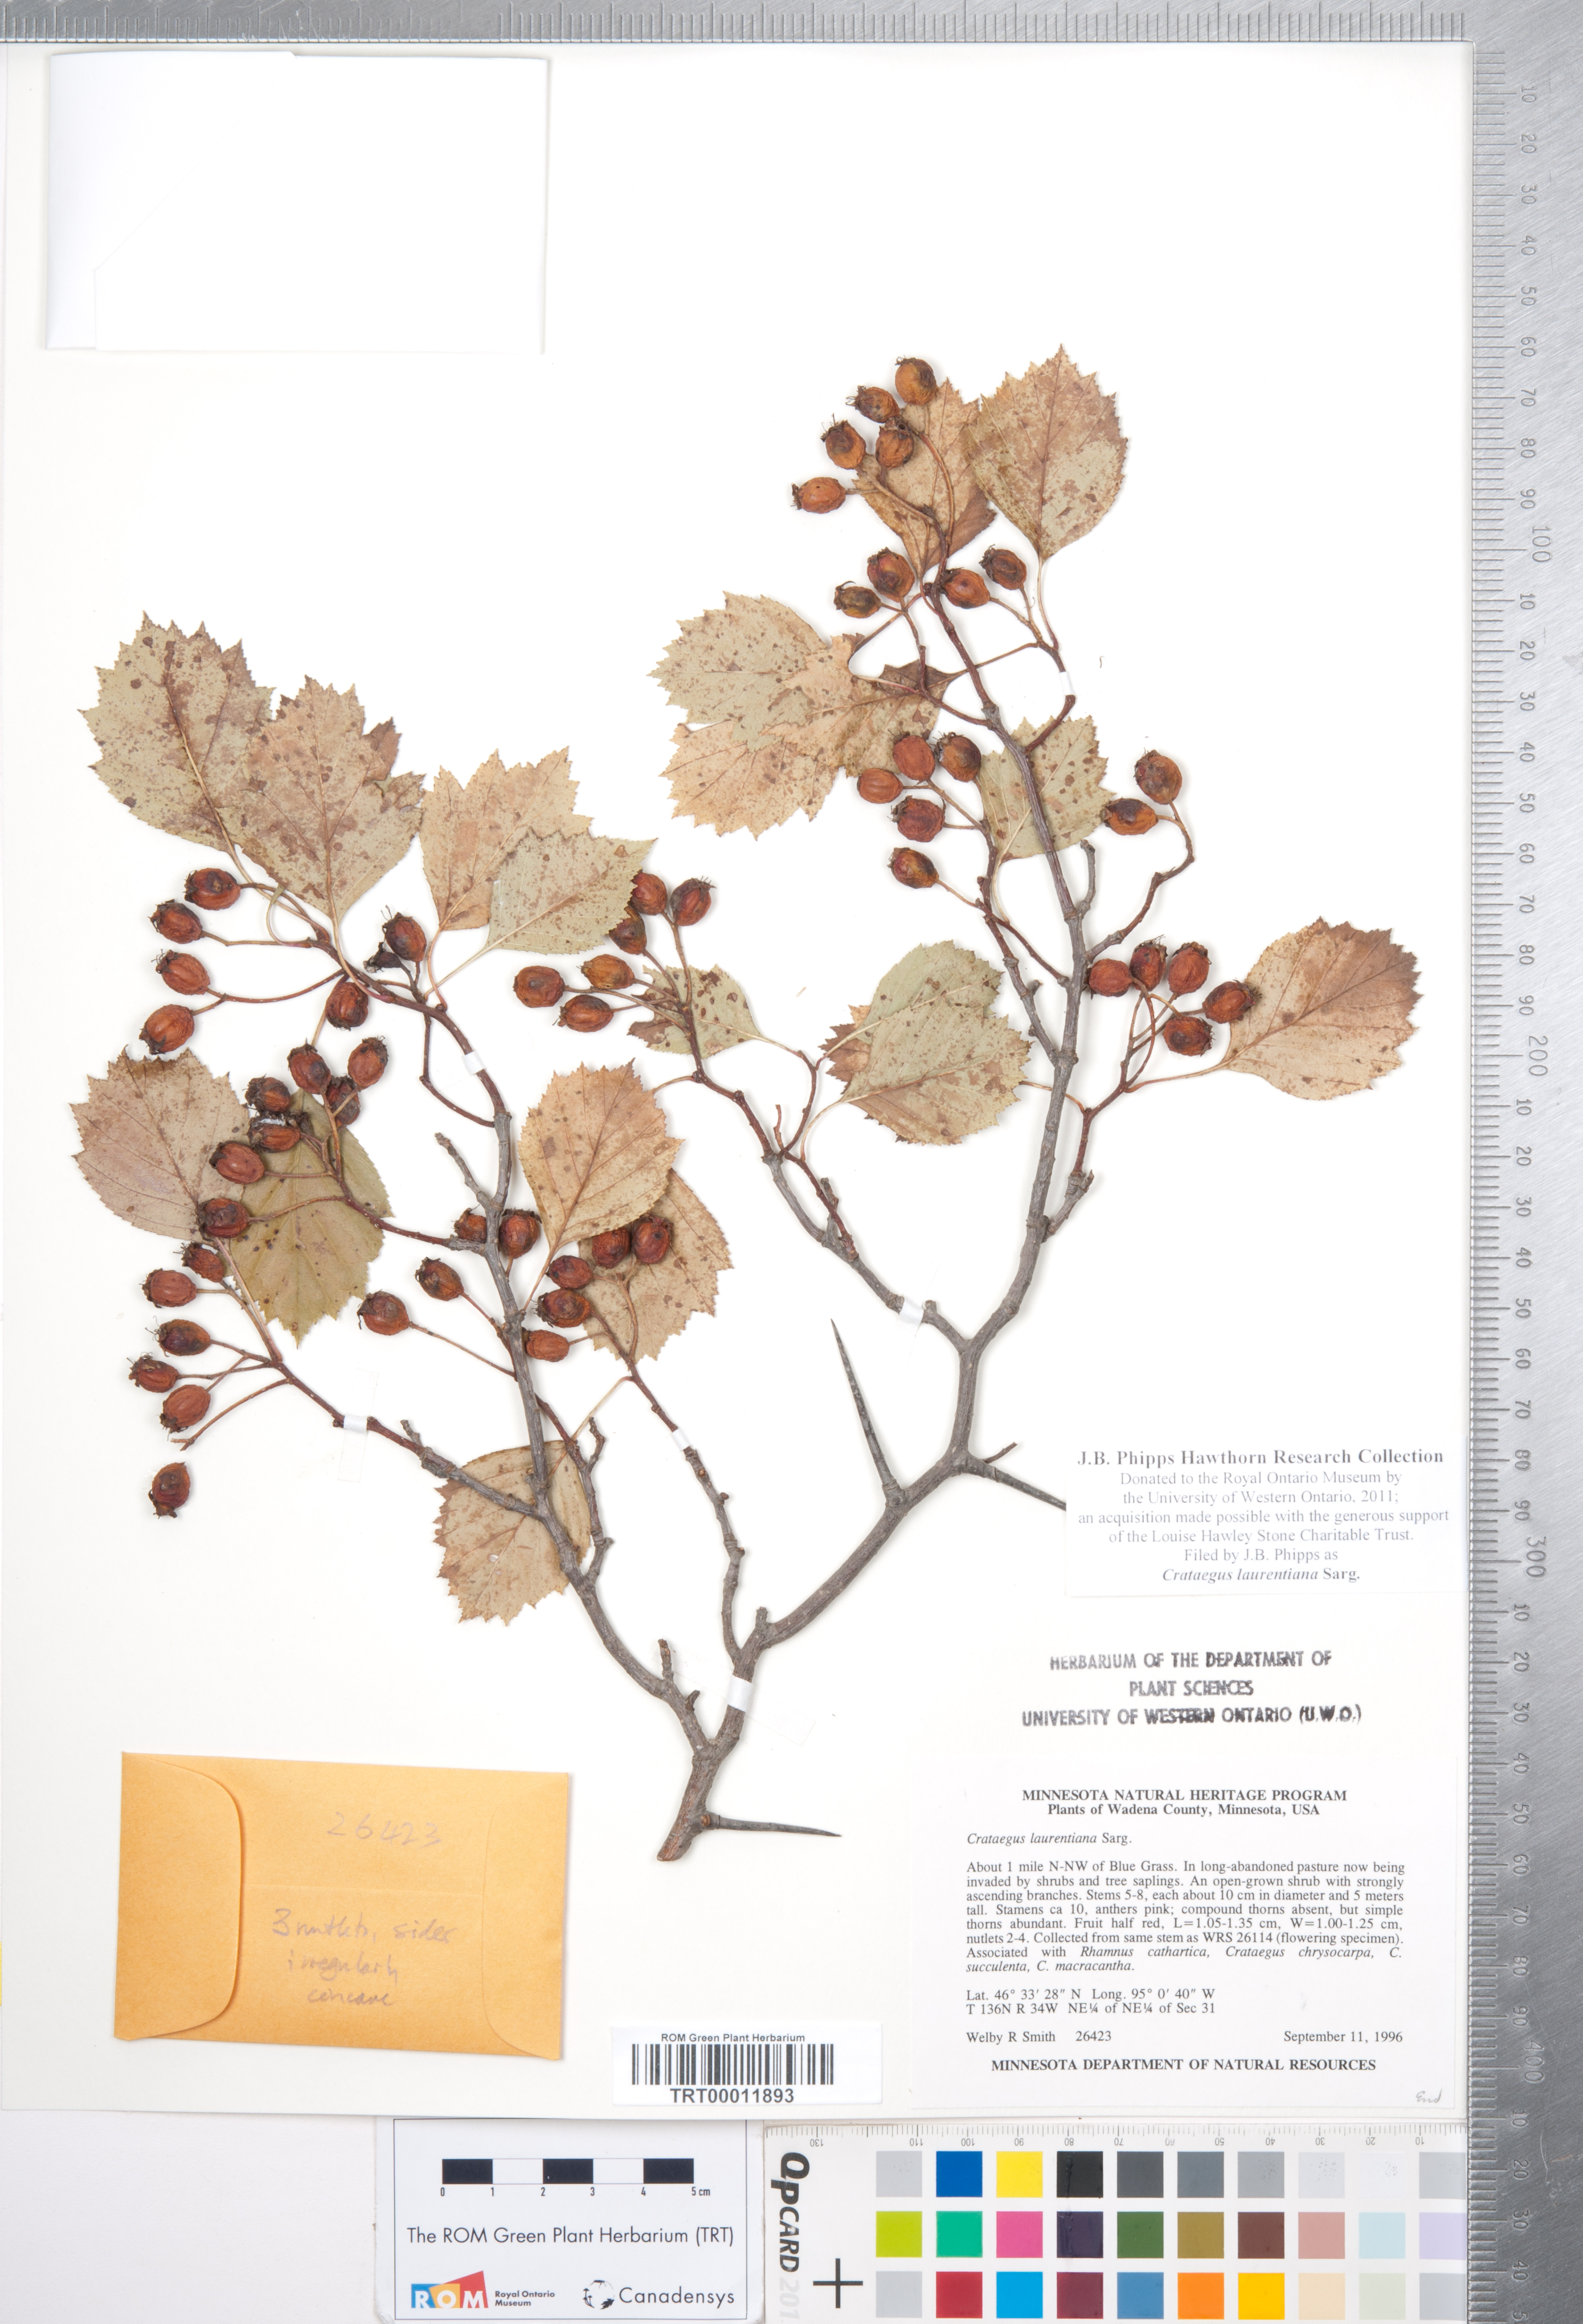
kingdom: Plantae
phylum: Tracheophyta
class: Magnoliopsida
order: Rosales
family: Rosaceae
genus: Crataegus
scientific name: Crataegus jonesiae
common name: Jones' hawthorn
